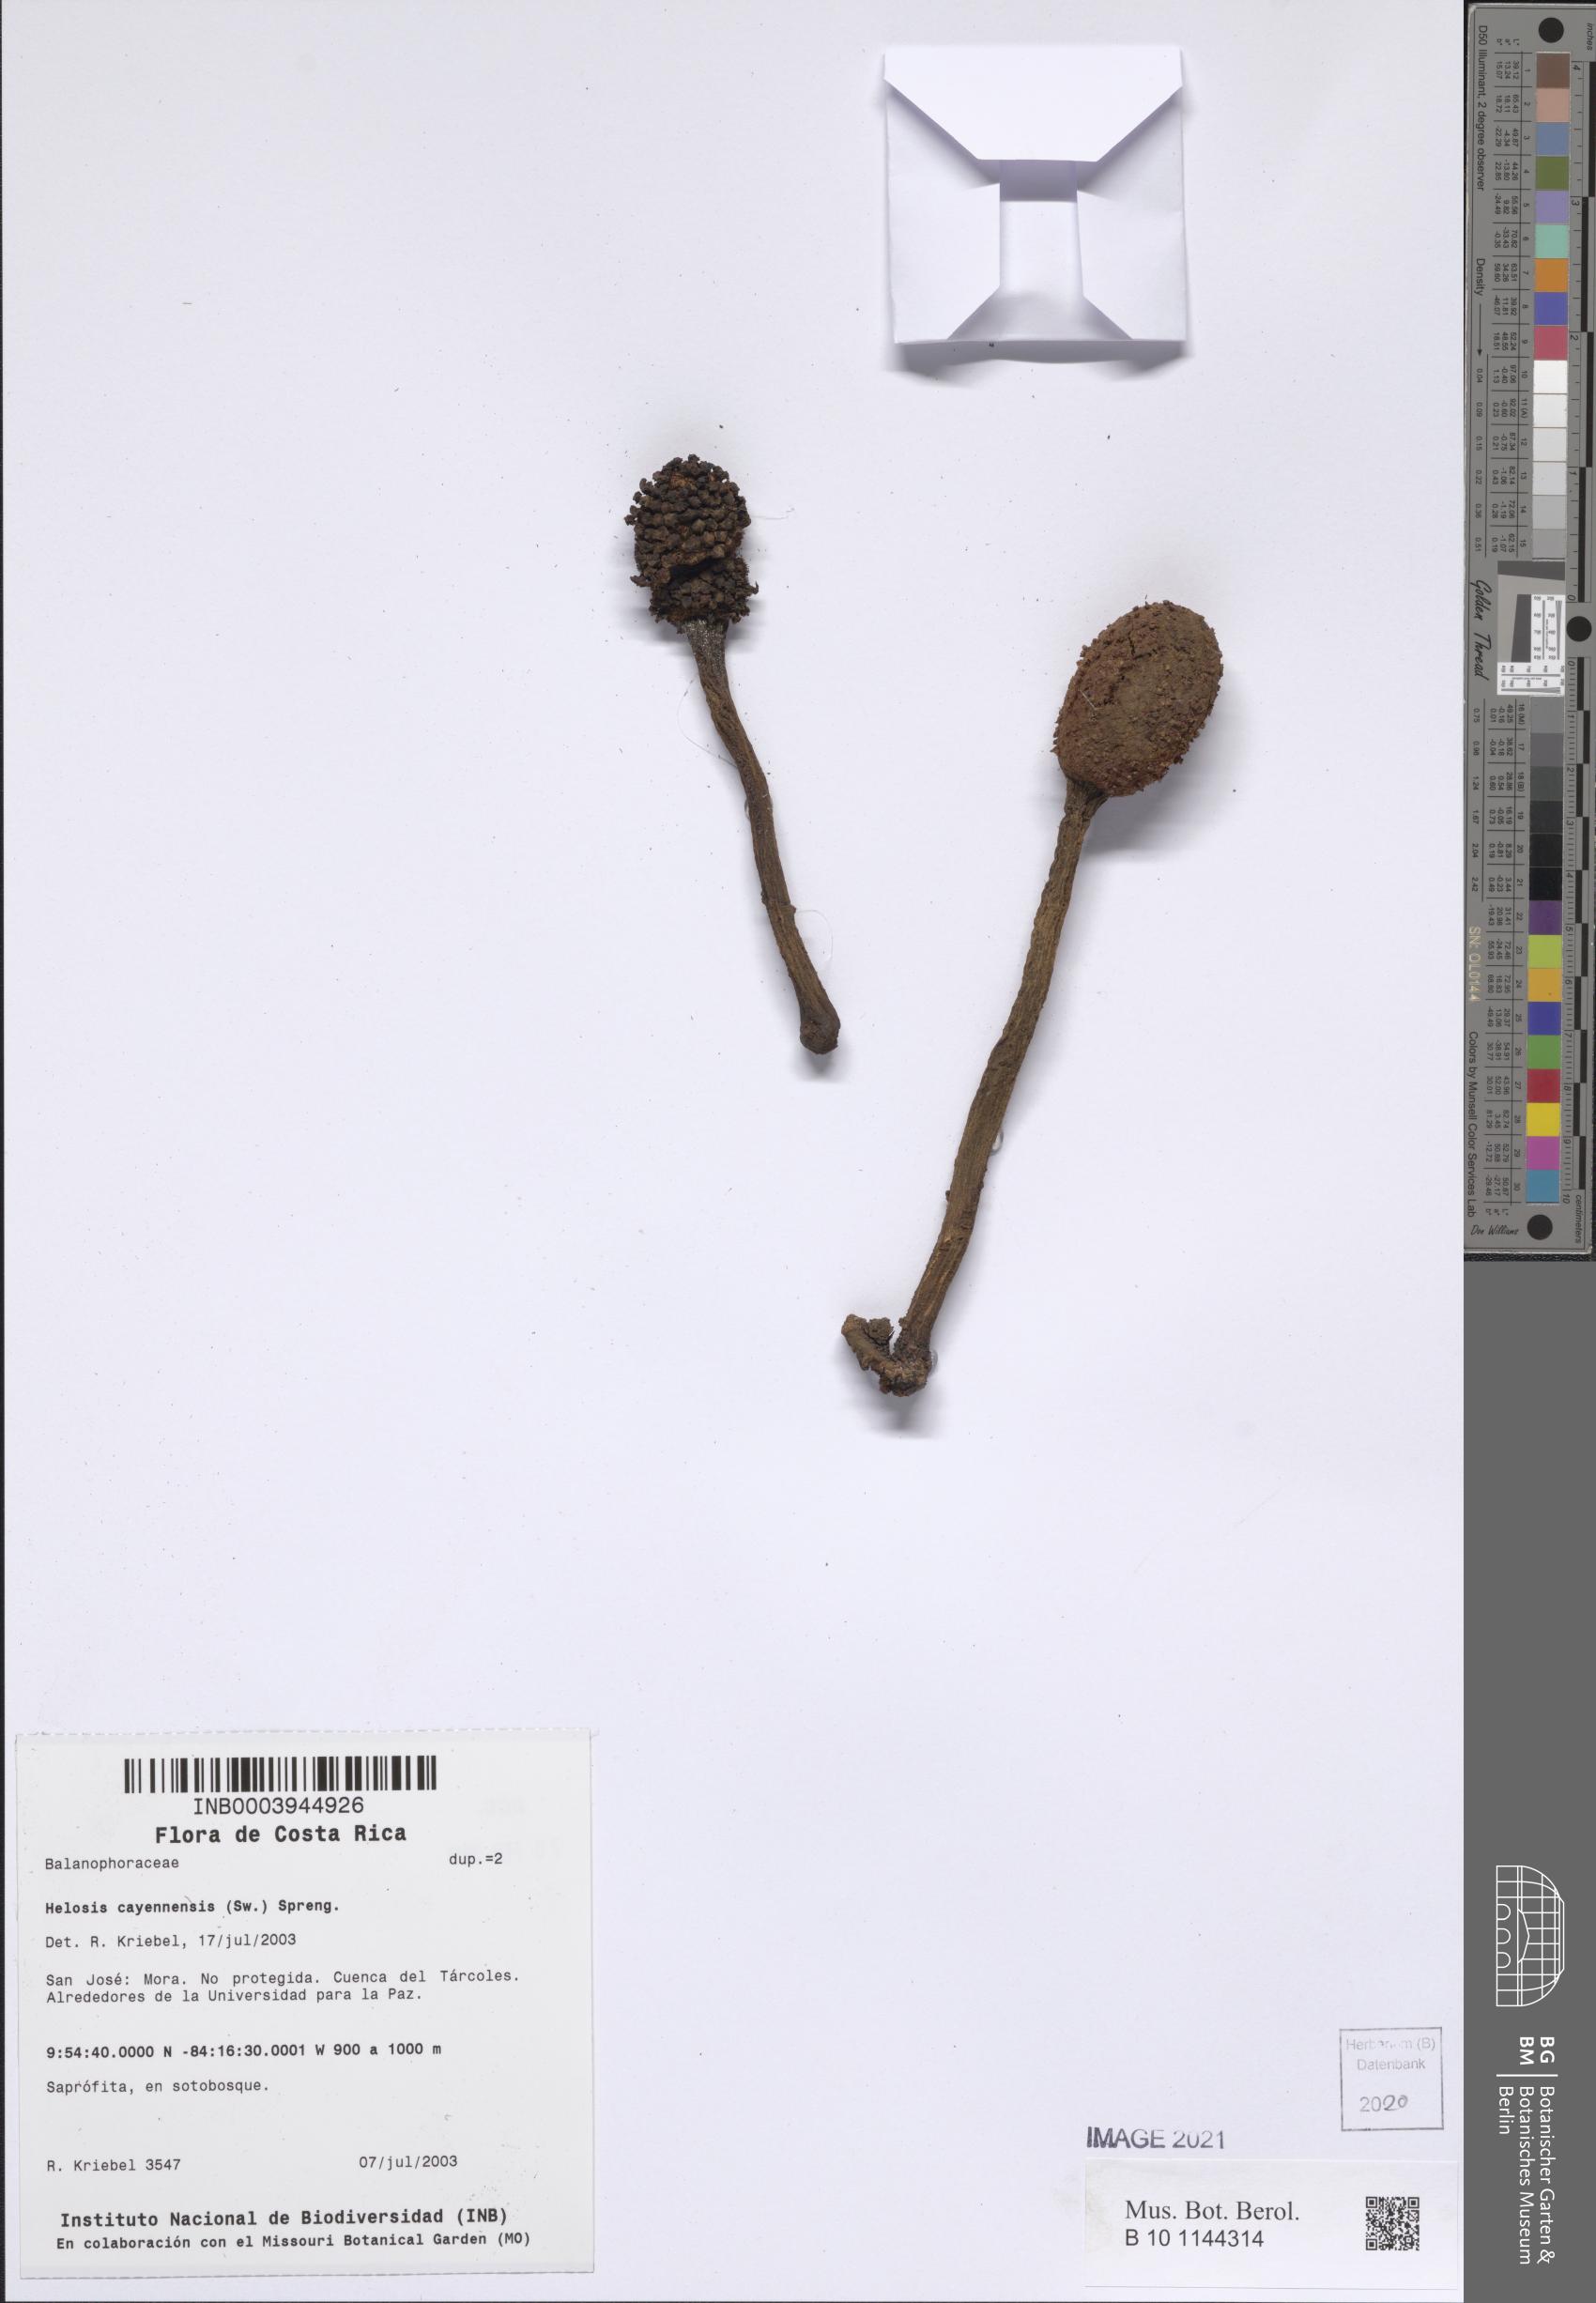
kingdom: Plantae
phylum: Tracheophyta
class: Magnoliopsida
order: Santalales
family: Balanophoraceae
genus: Helosis
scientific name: Helosis cayennensis
